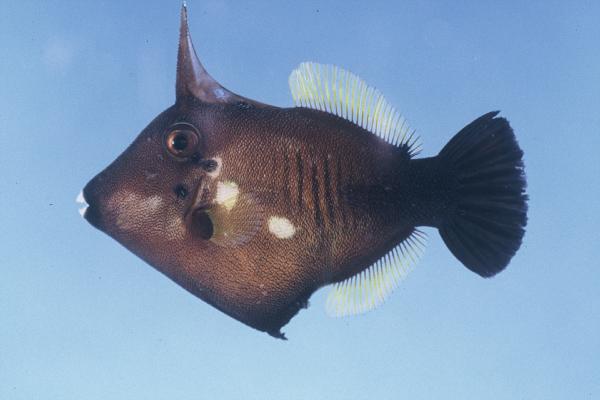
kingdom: Animalia
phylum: Chordata
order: Tetraodontiformes
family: Monacanthidae
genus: Amanses
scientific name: Amanses scopas
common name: Broom filefish
